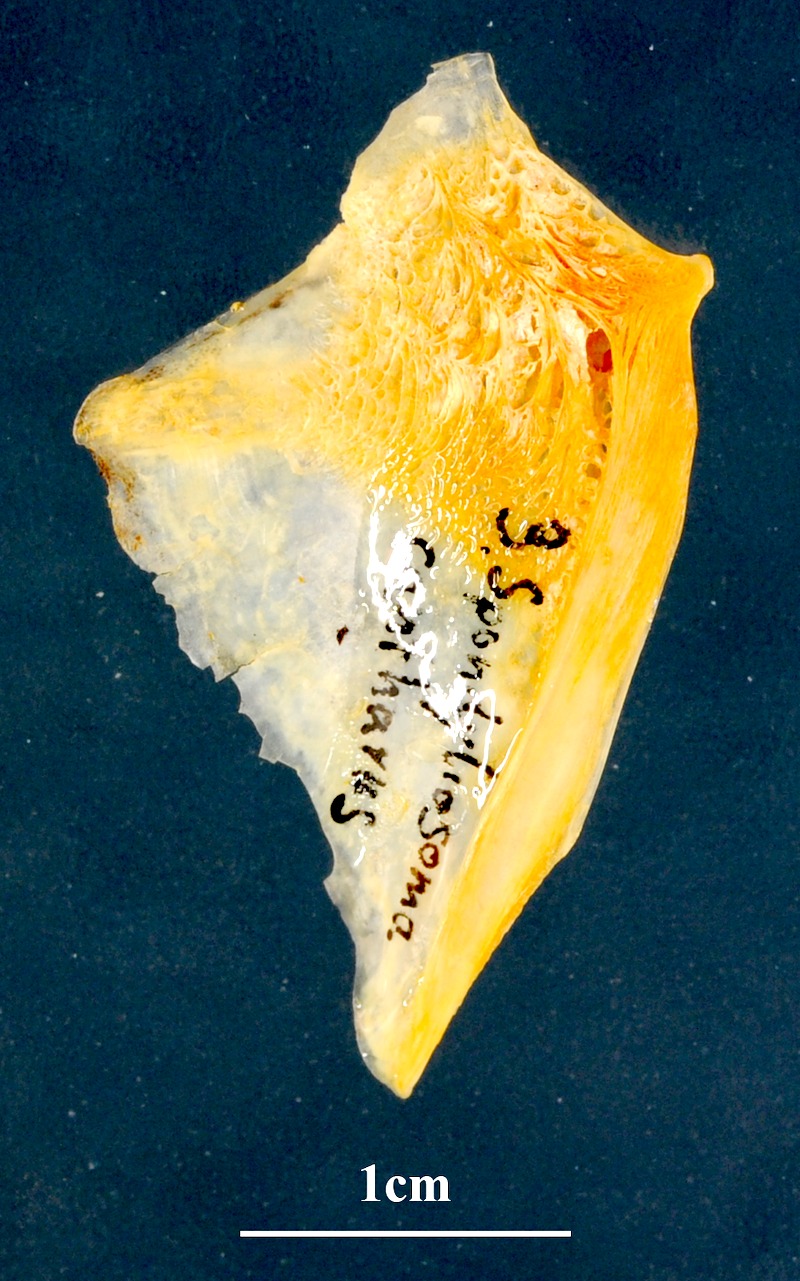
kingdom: Animalia
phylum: Chordata
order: Cypriniformes
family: Cyprinidae
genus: Cyprinus
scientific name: Cyprinus carpio
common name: Common carp
